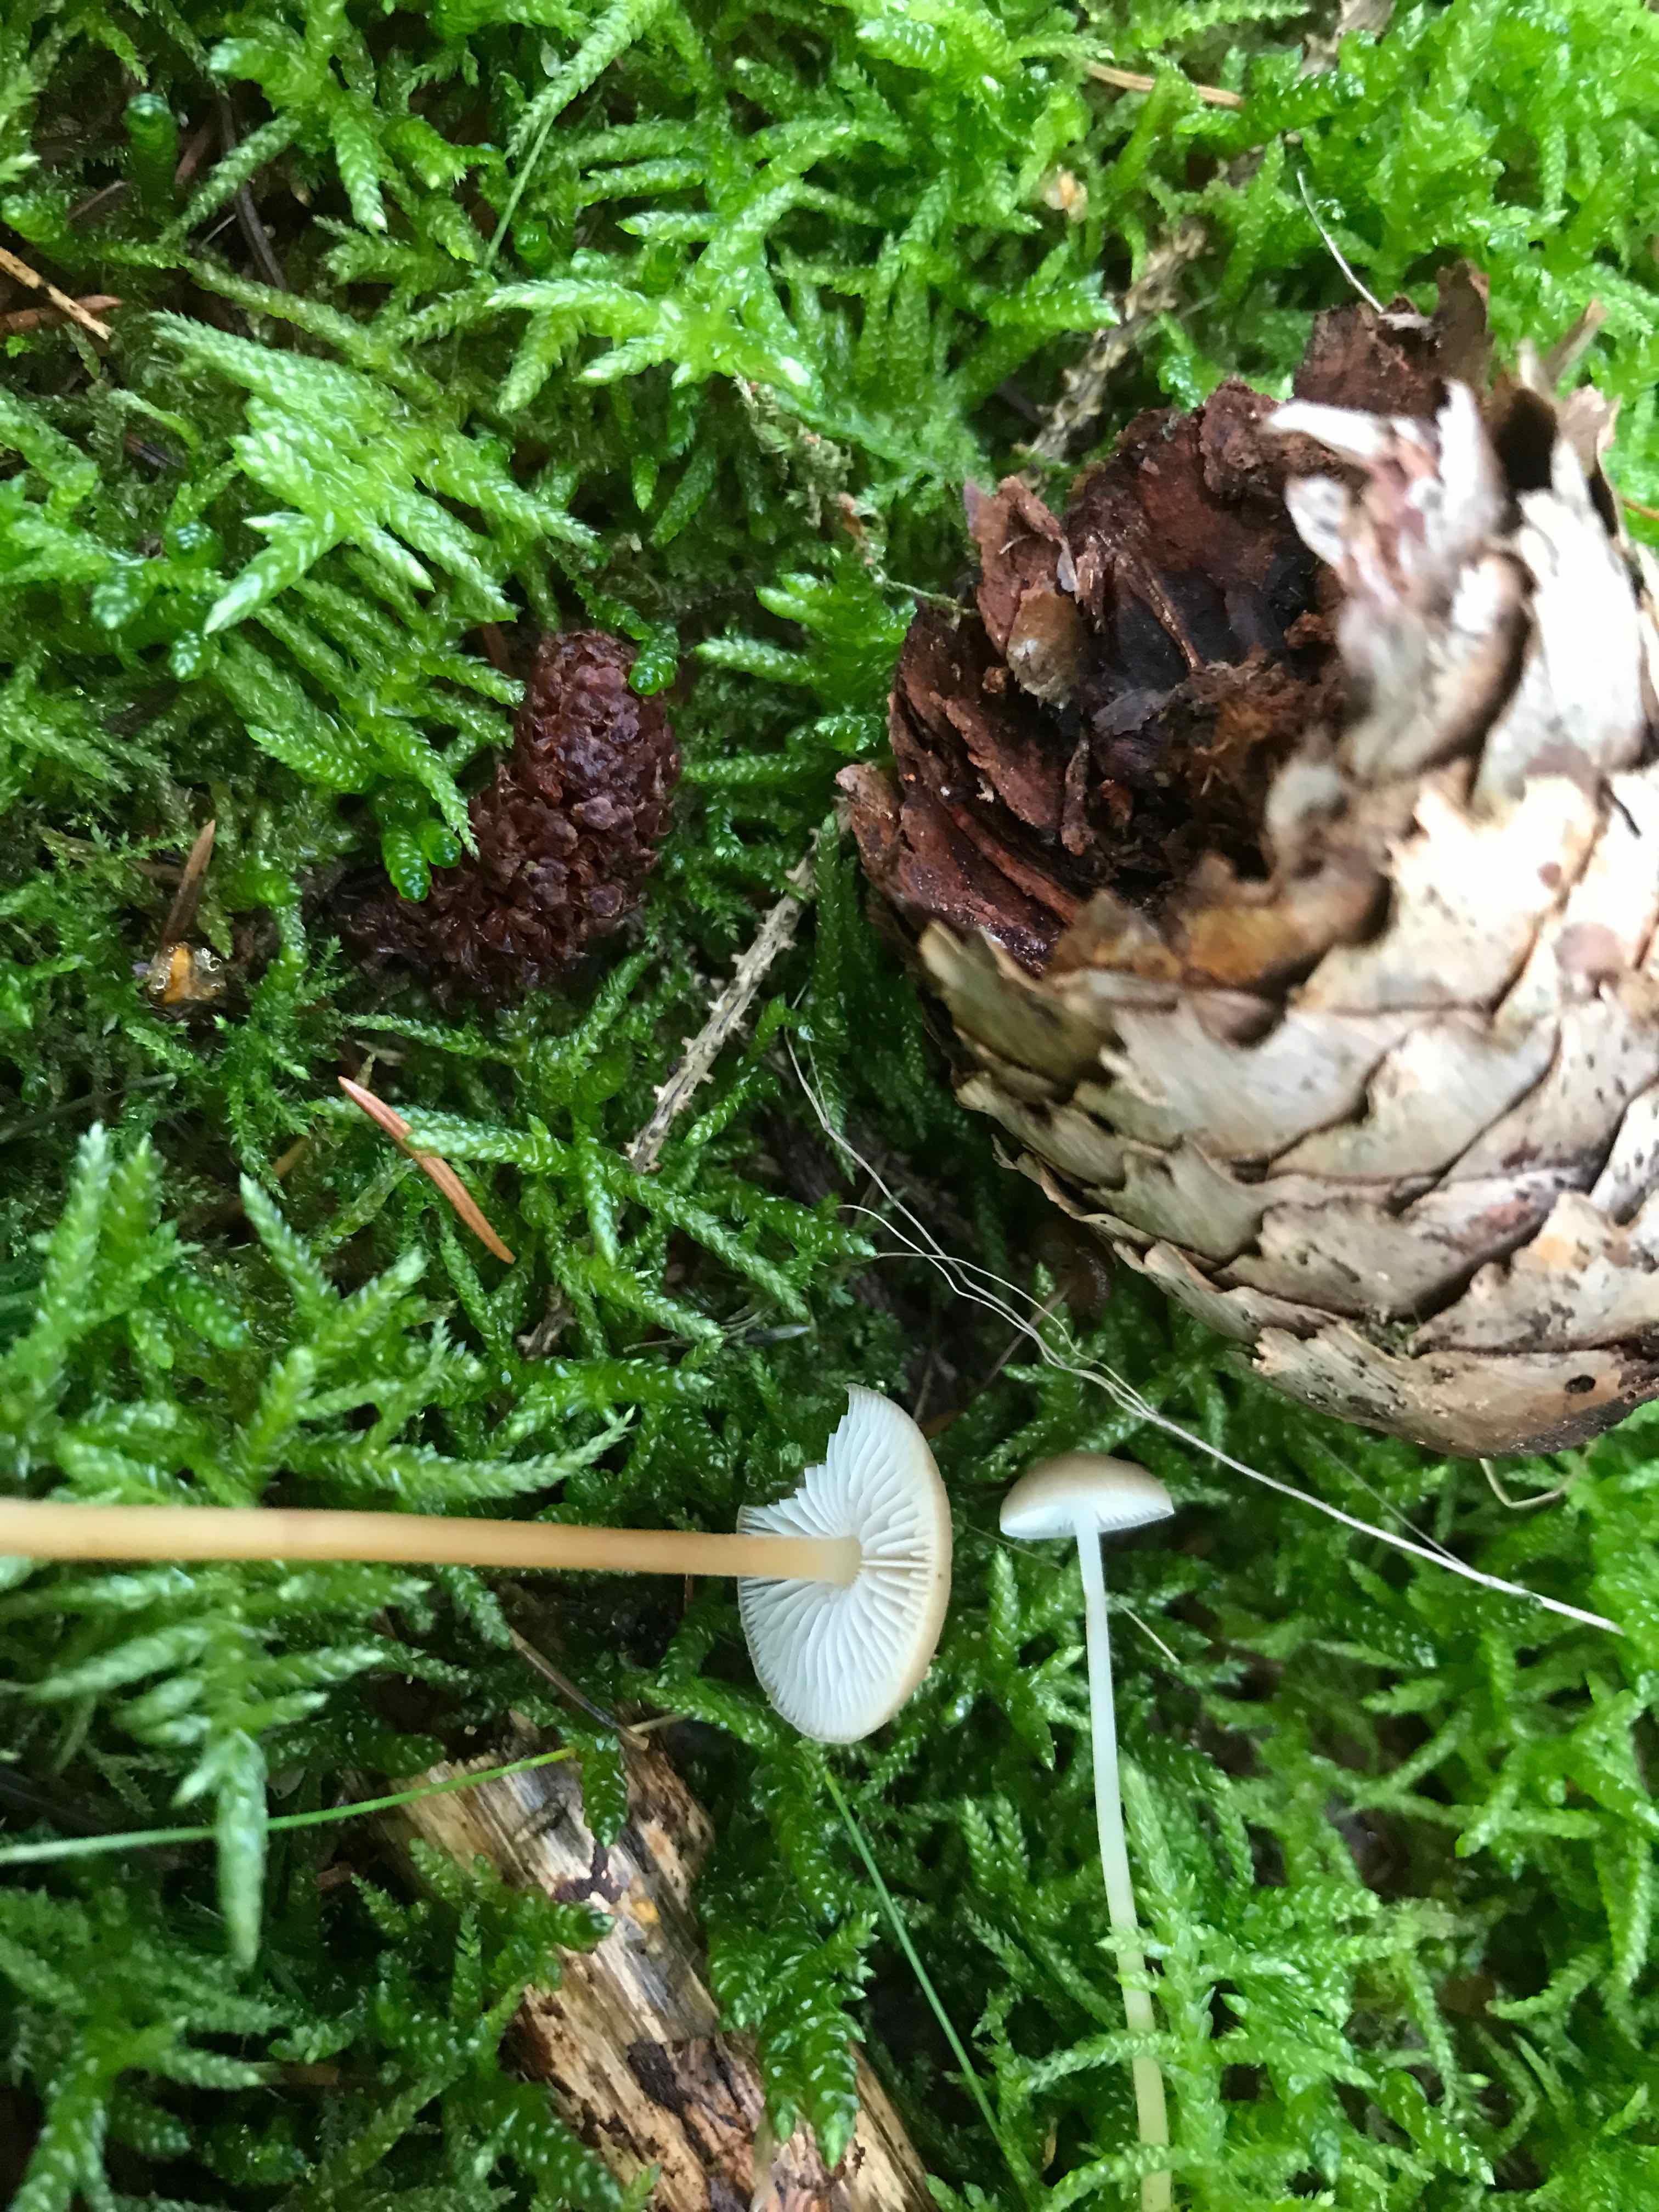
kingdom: Fungi
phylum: Basidiomycota
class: Agaricomycetes
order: Agaricales
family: Physalacriaceae
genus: Strobilurus
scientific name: Strobilurus esculentus
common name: gran-koglehat
